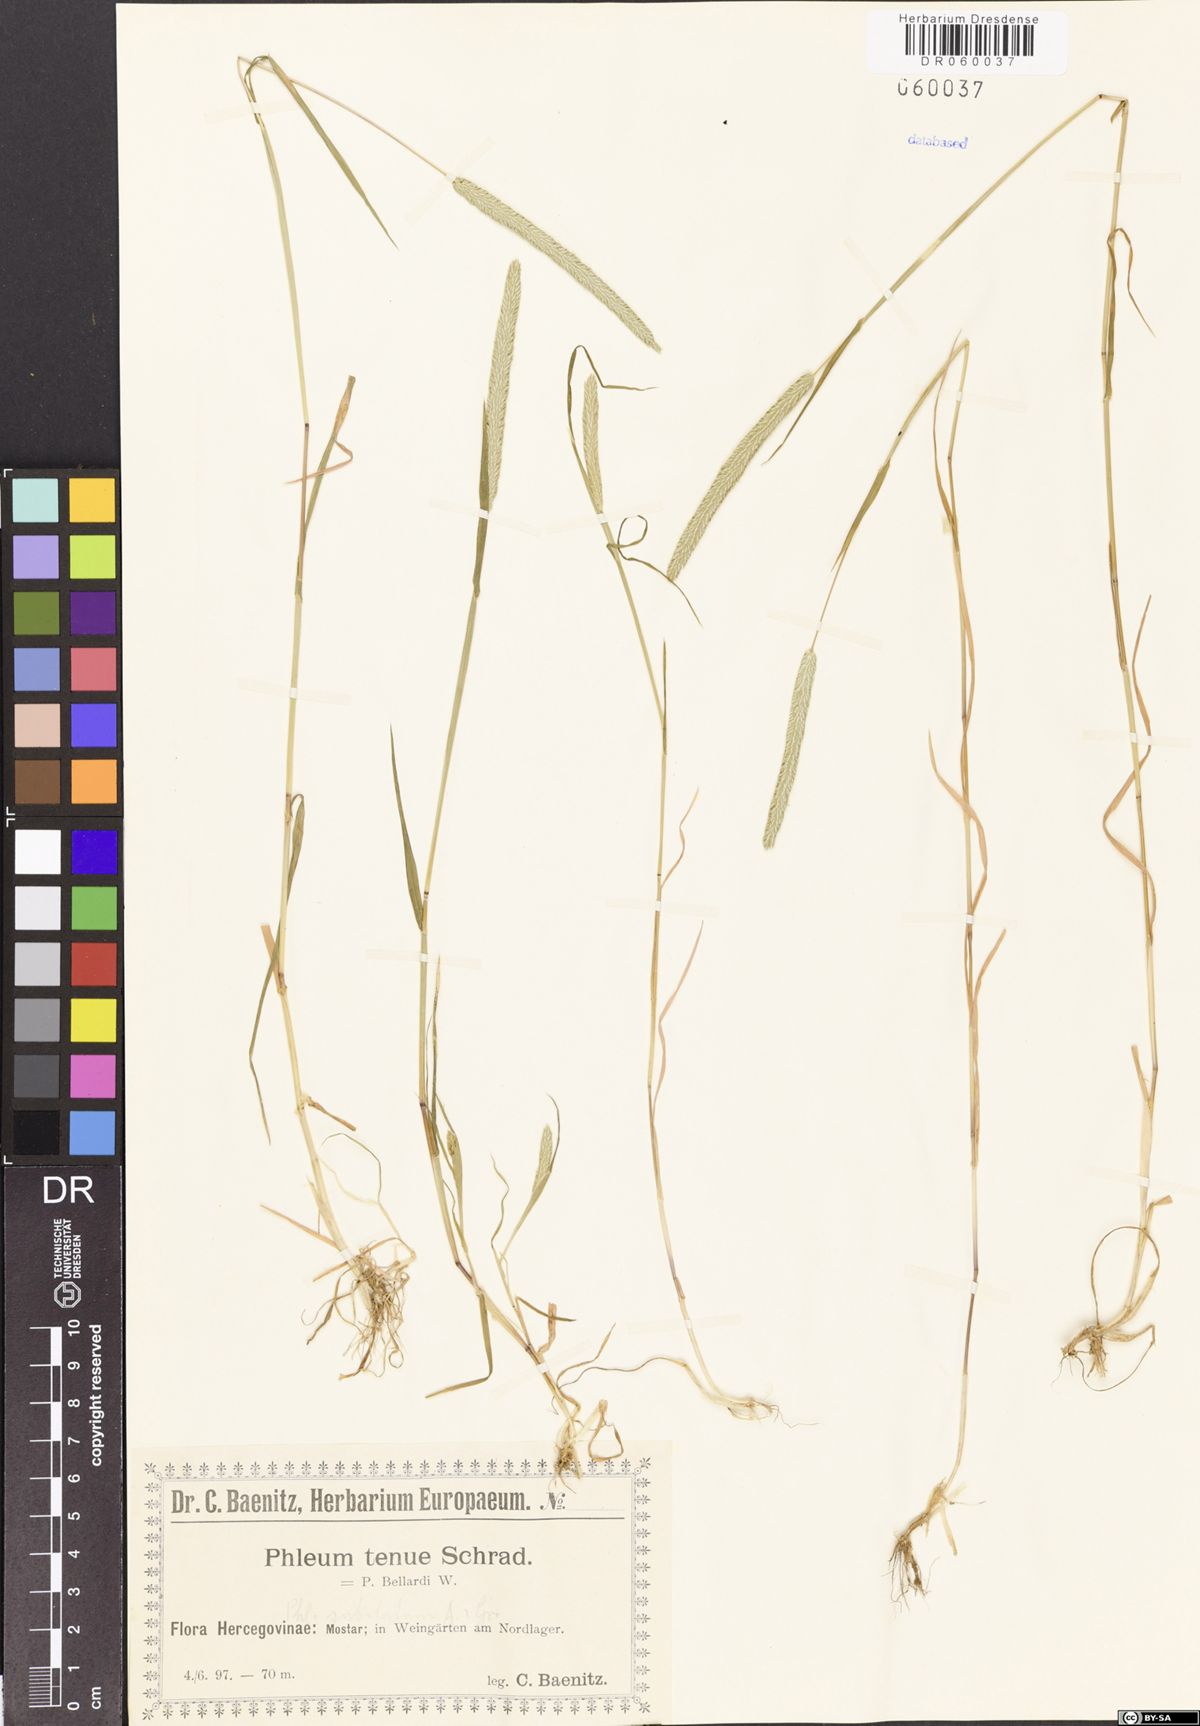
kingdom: Plantae
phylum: Tracheophyta
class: Liliopsida
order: Poales
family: Poaceae
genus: Phleum
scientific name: Phleum subulatum
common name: Italian timothy
